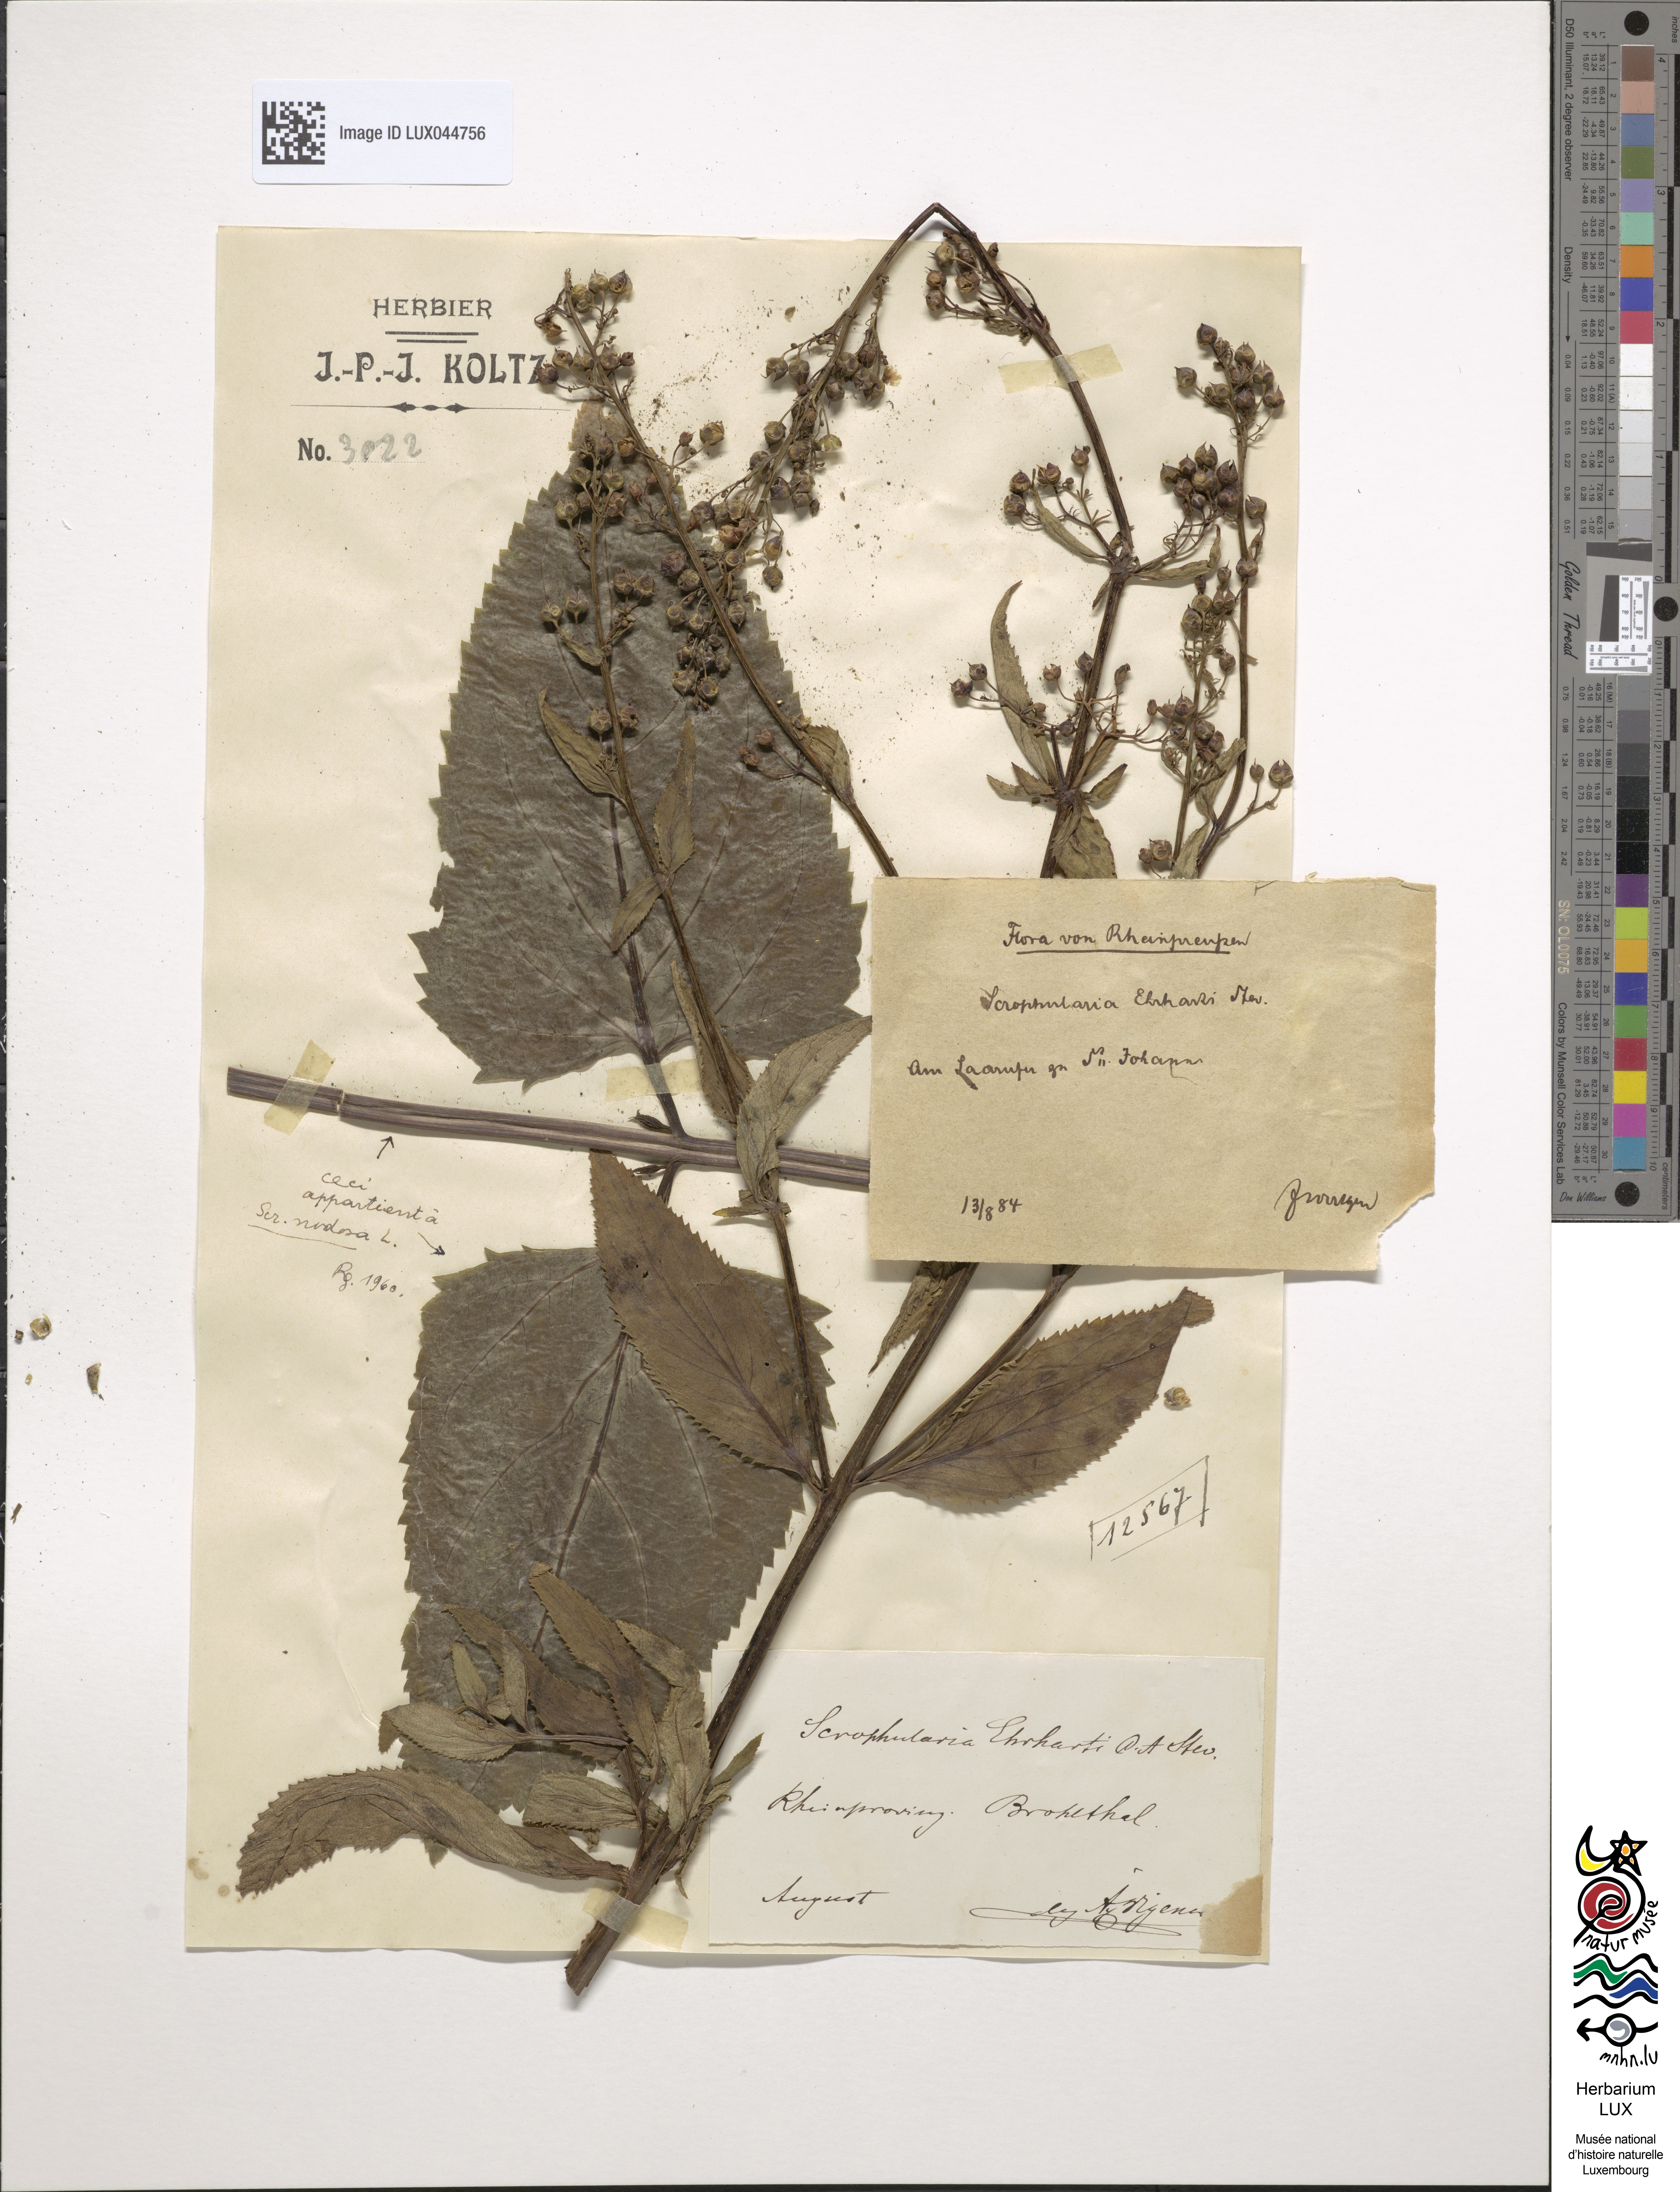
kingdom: Plantae
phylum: Tracheophyta
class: Magnoliopsida
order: Lamiales
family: Scrophulariaceae
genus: Scrophularia
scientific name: Scrophularia umbrosa
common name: Green figwort
